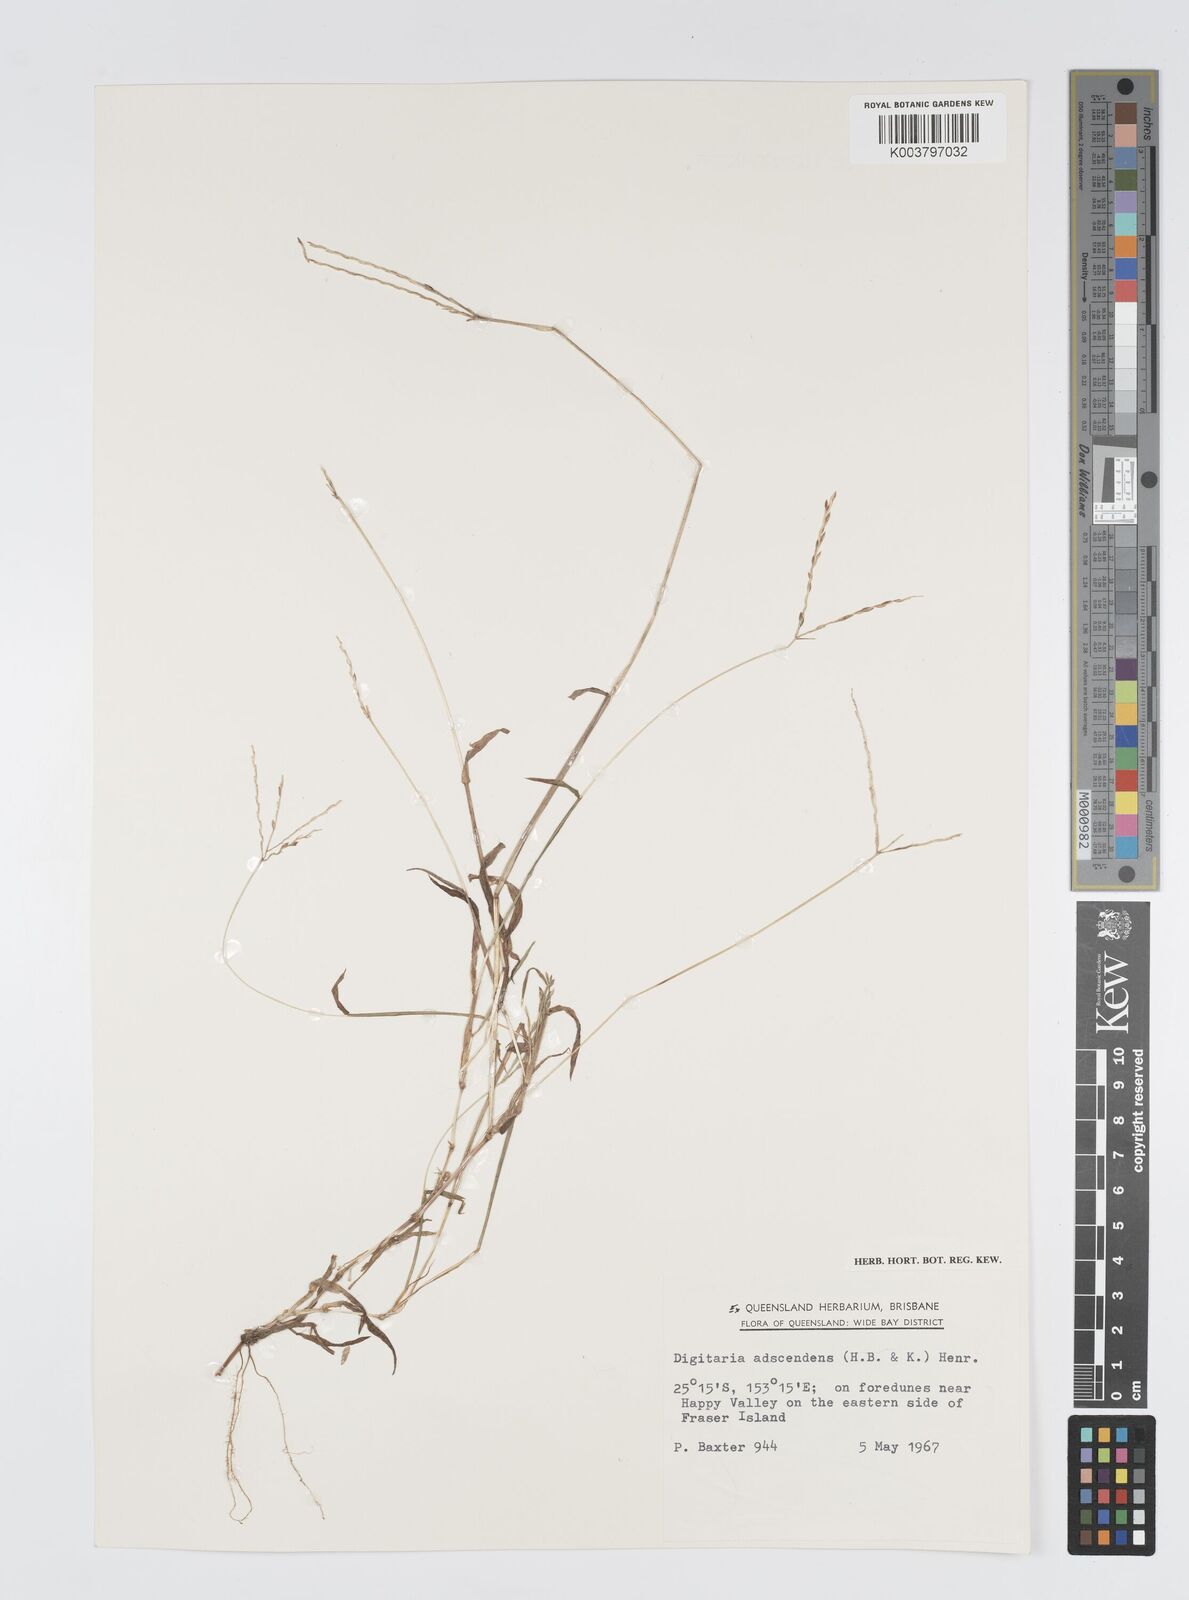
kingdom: Plantae
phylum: Tracheophyta
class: Liliopsida
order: Poales
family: Poaceae
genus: Digitaria
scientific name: Digitaria ciliaris
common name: Tropical finger-grass
